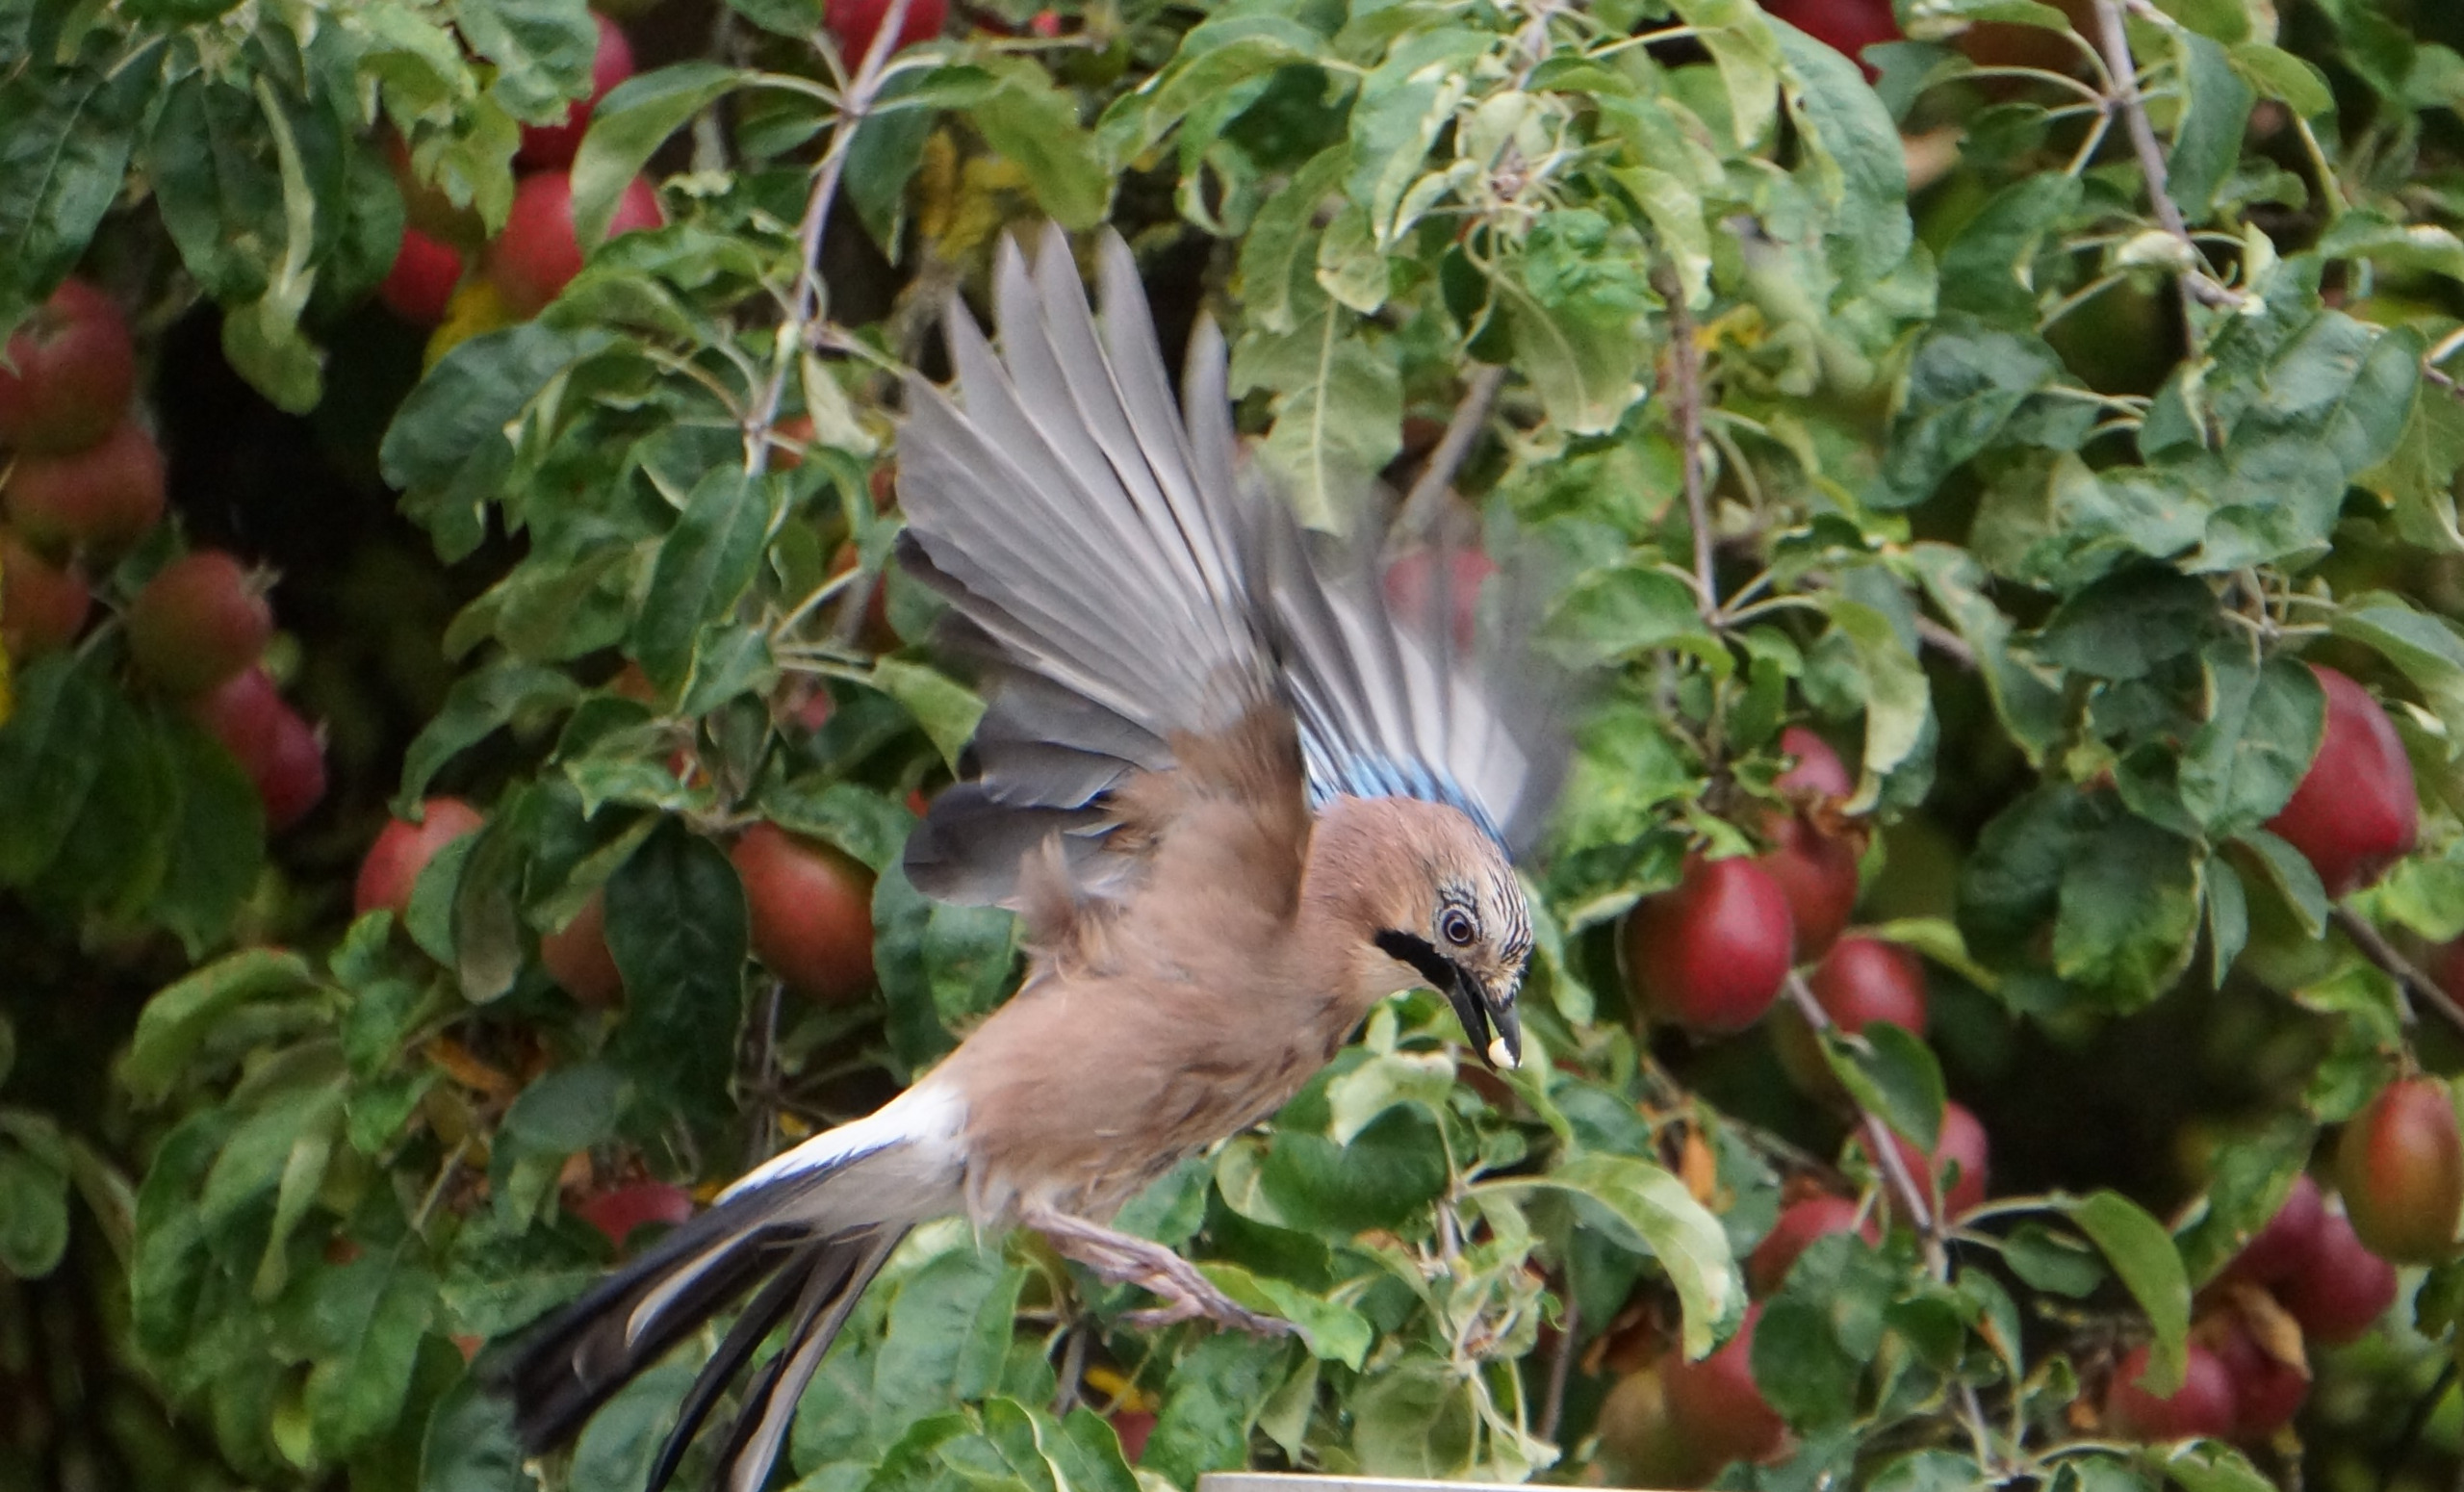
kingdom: Animalia
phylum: Chordata
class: Aves
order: Passeriformes
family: Corvidae
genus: Garrulus
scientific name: Garrulus glandarius
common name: Skovskade
